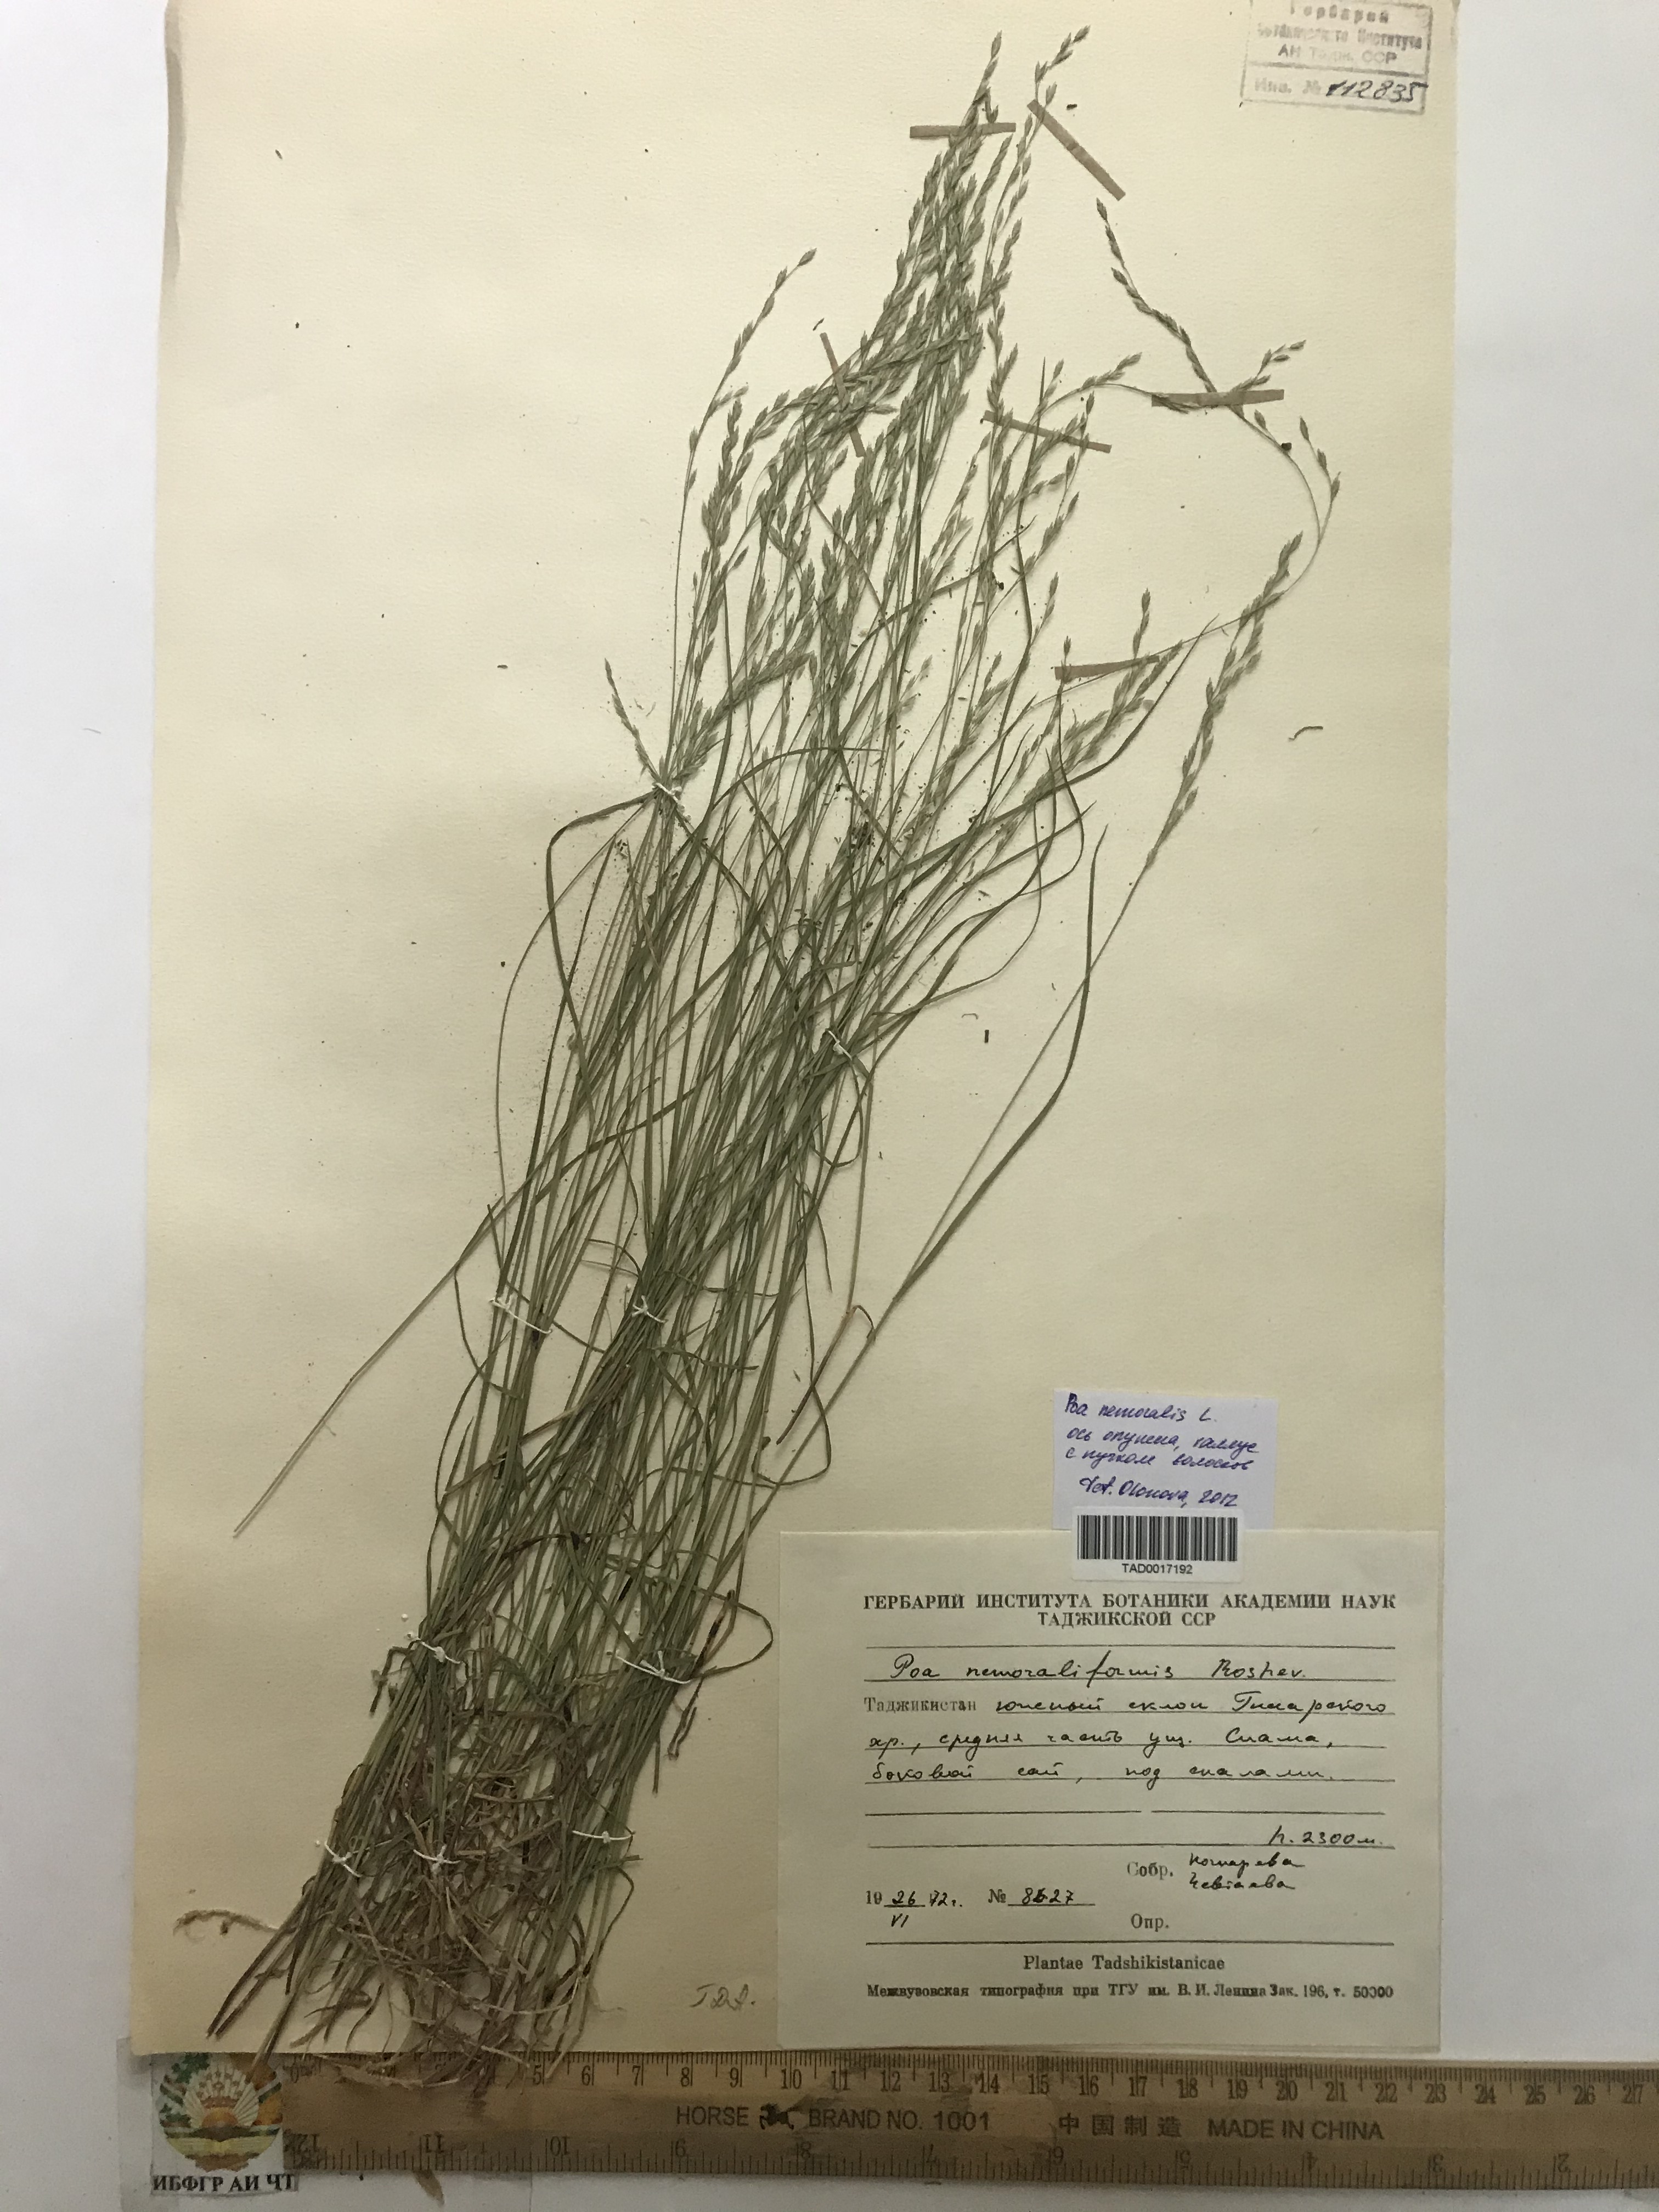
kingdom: Plantae
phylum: Tracheophyta
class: Liliopsida
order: Poales
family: Poaceae
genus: Poa
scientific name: Poa urssulensis
